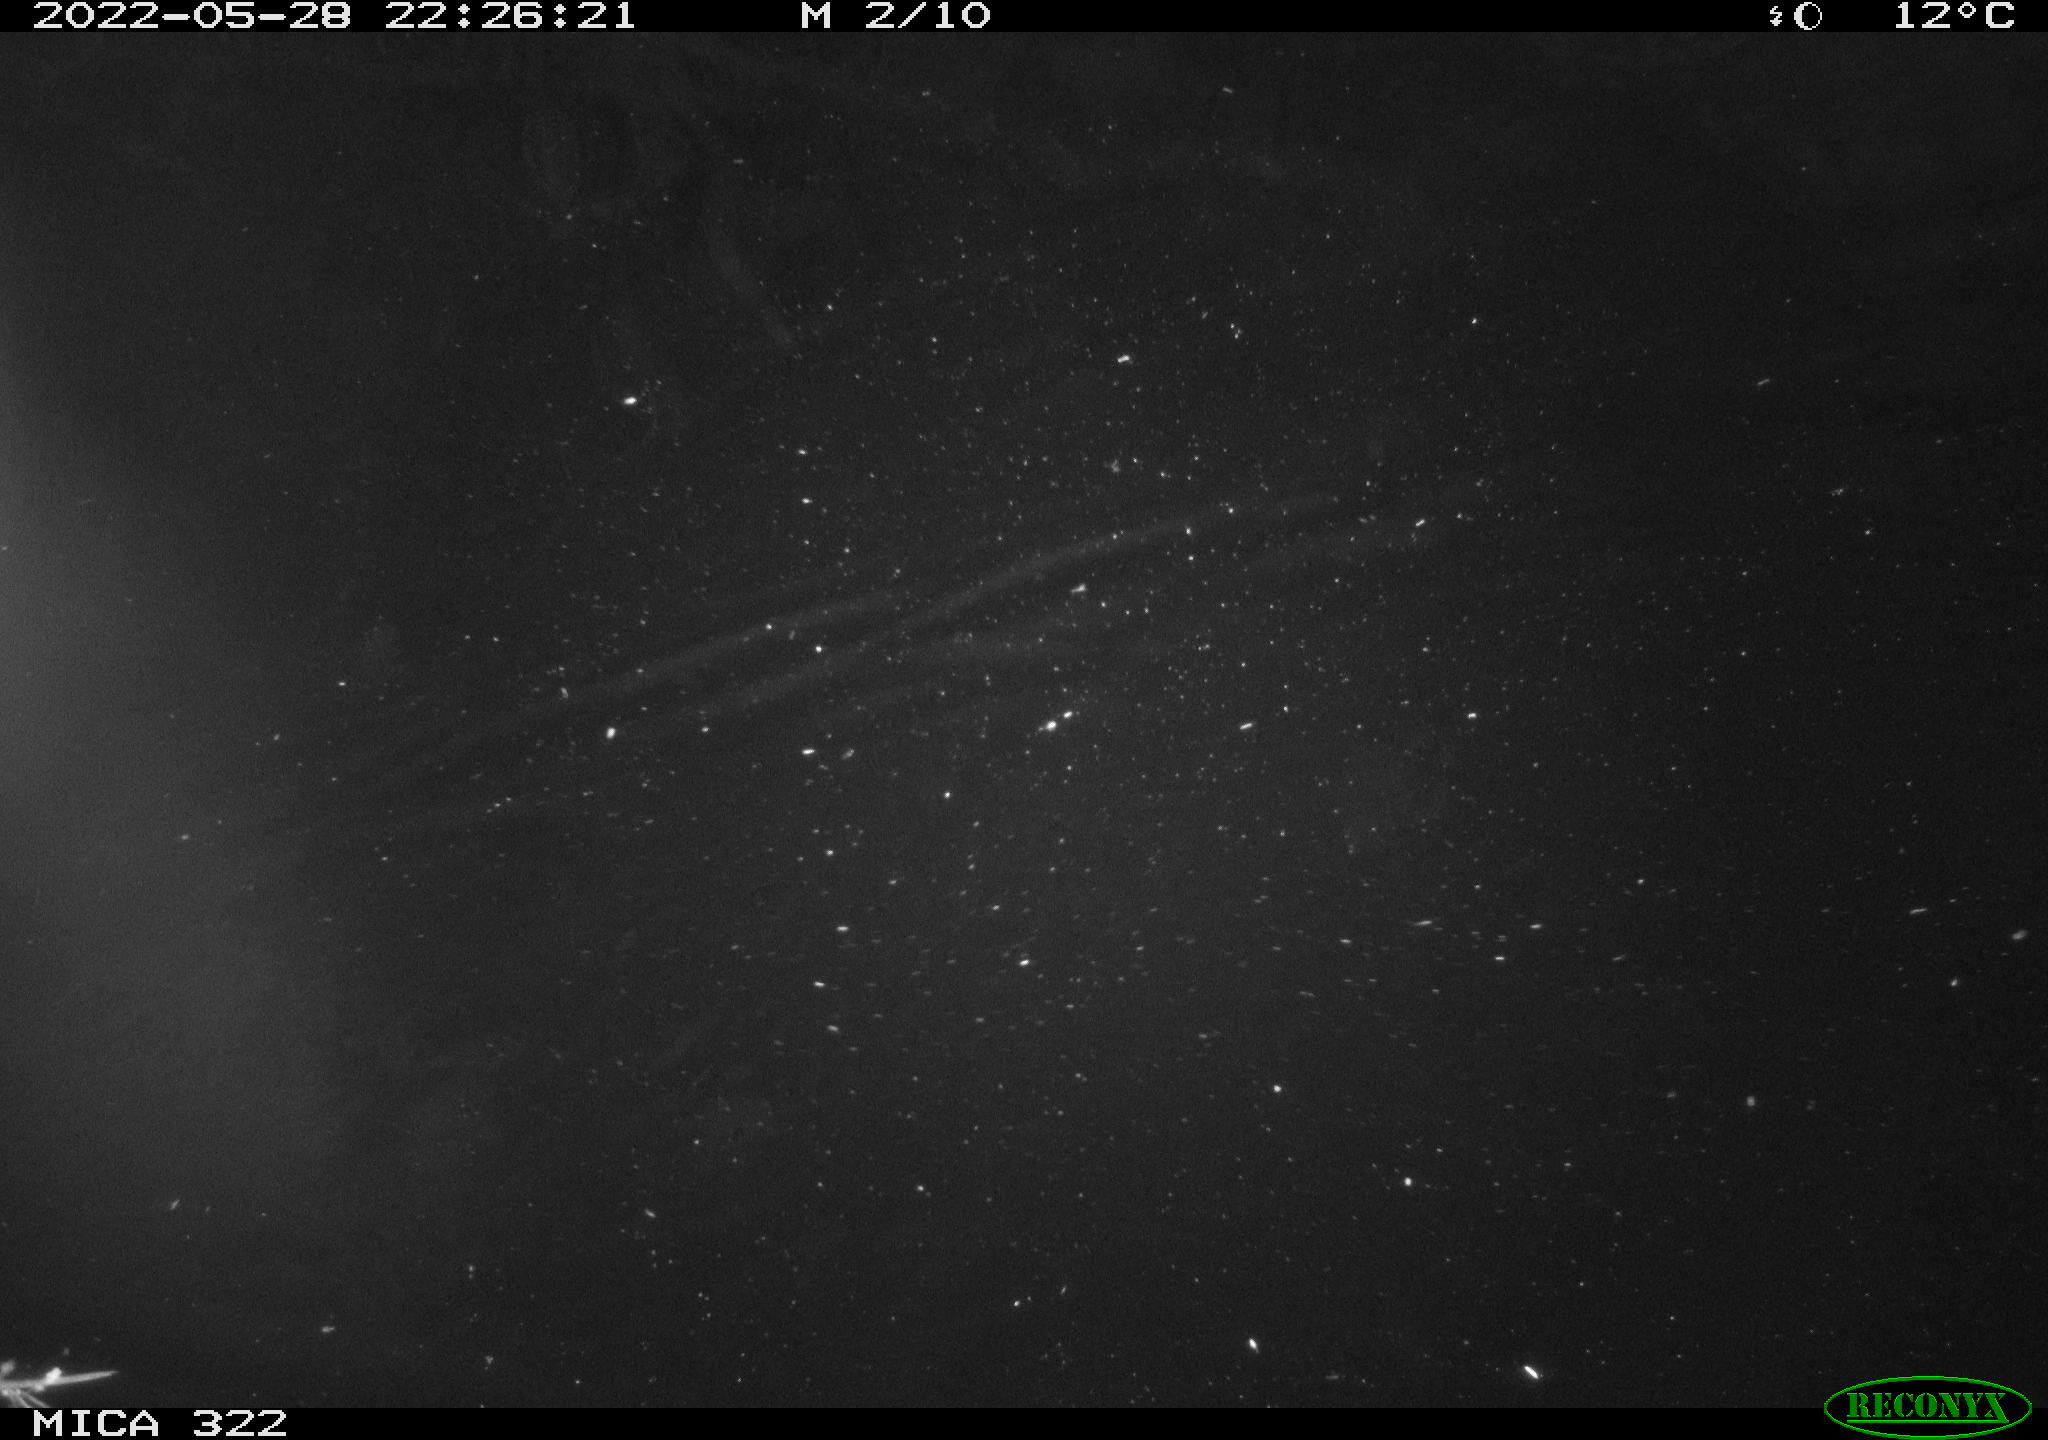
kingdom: Animalia
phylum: Chordata
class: Aves
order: Anseriformes
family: Anatidae
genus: Mareca
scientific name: Mareca strepera
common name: Gadwall
